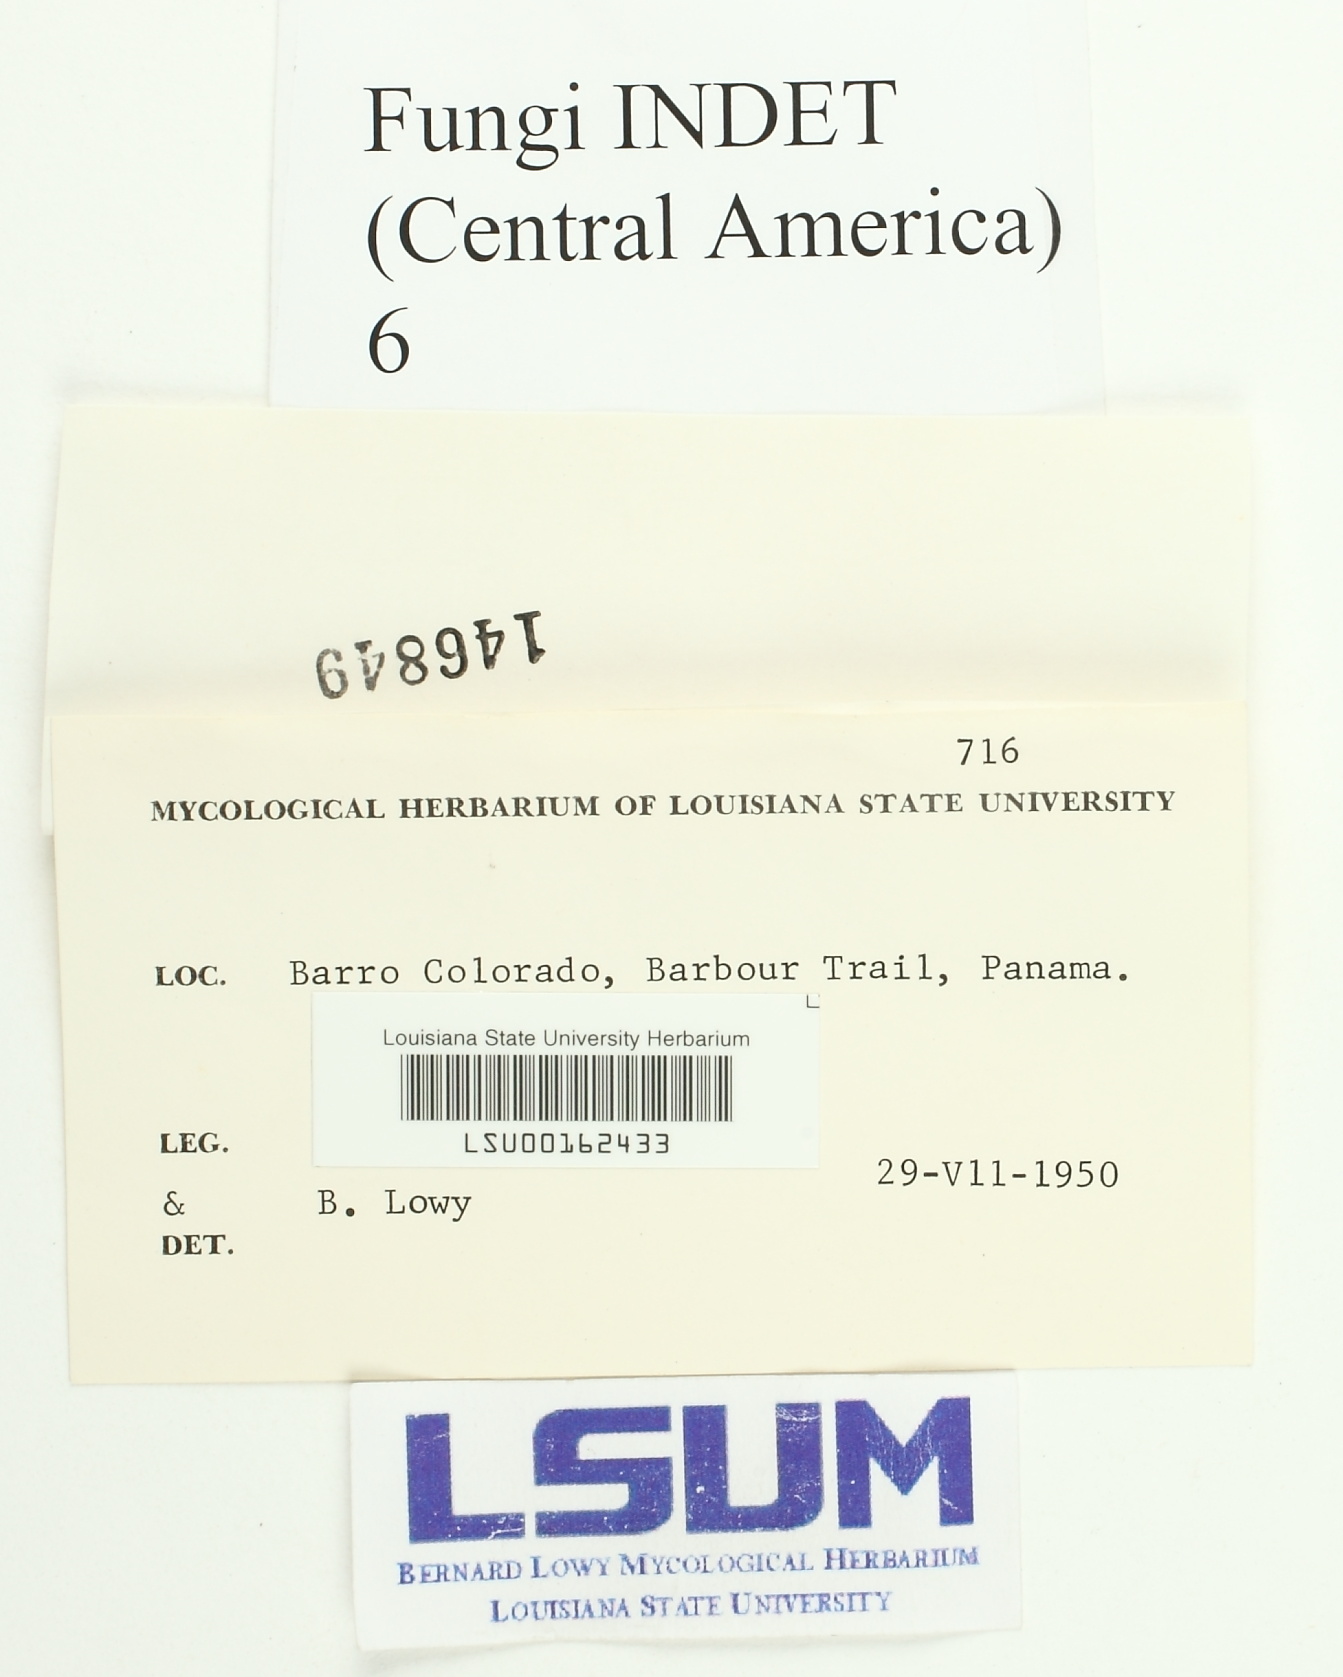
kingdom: Fungi
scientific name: Fungi
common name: Fungi
